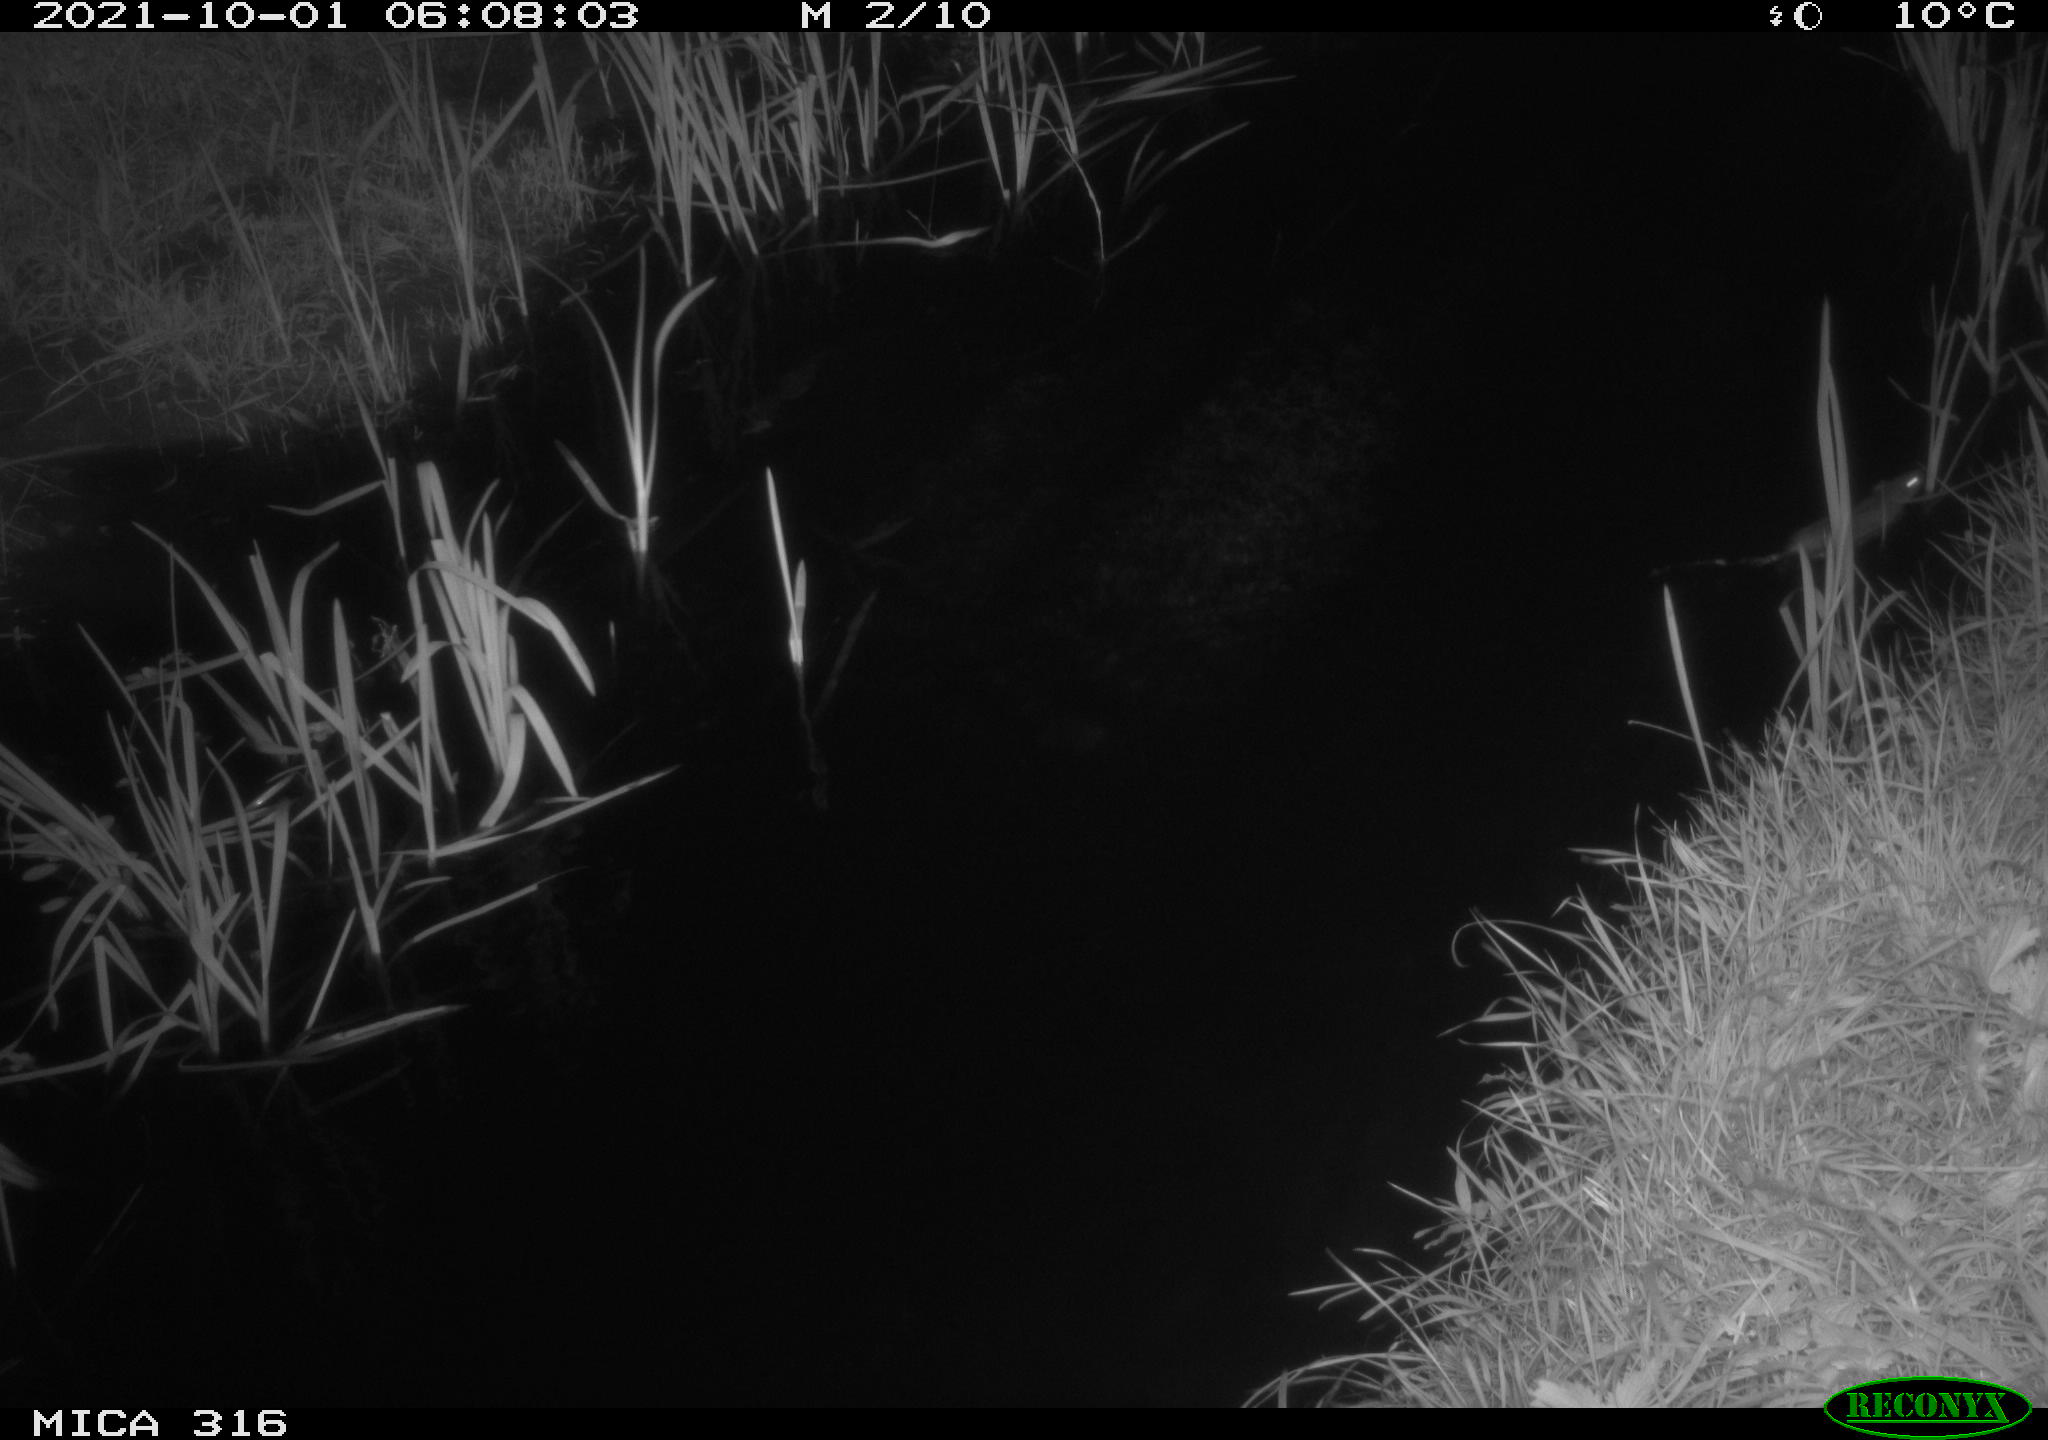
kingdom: Animalia
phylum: Chordata
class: Mammalia
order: Rodentia
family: Muridae
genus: Rattus
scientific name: Rattus norvegicus
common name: Brown rat
